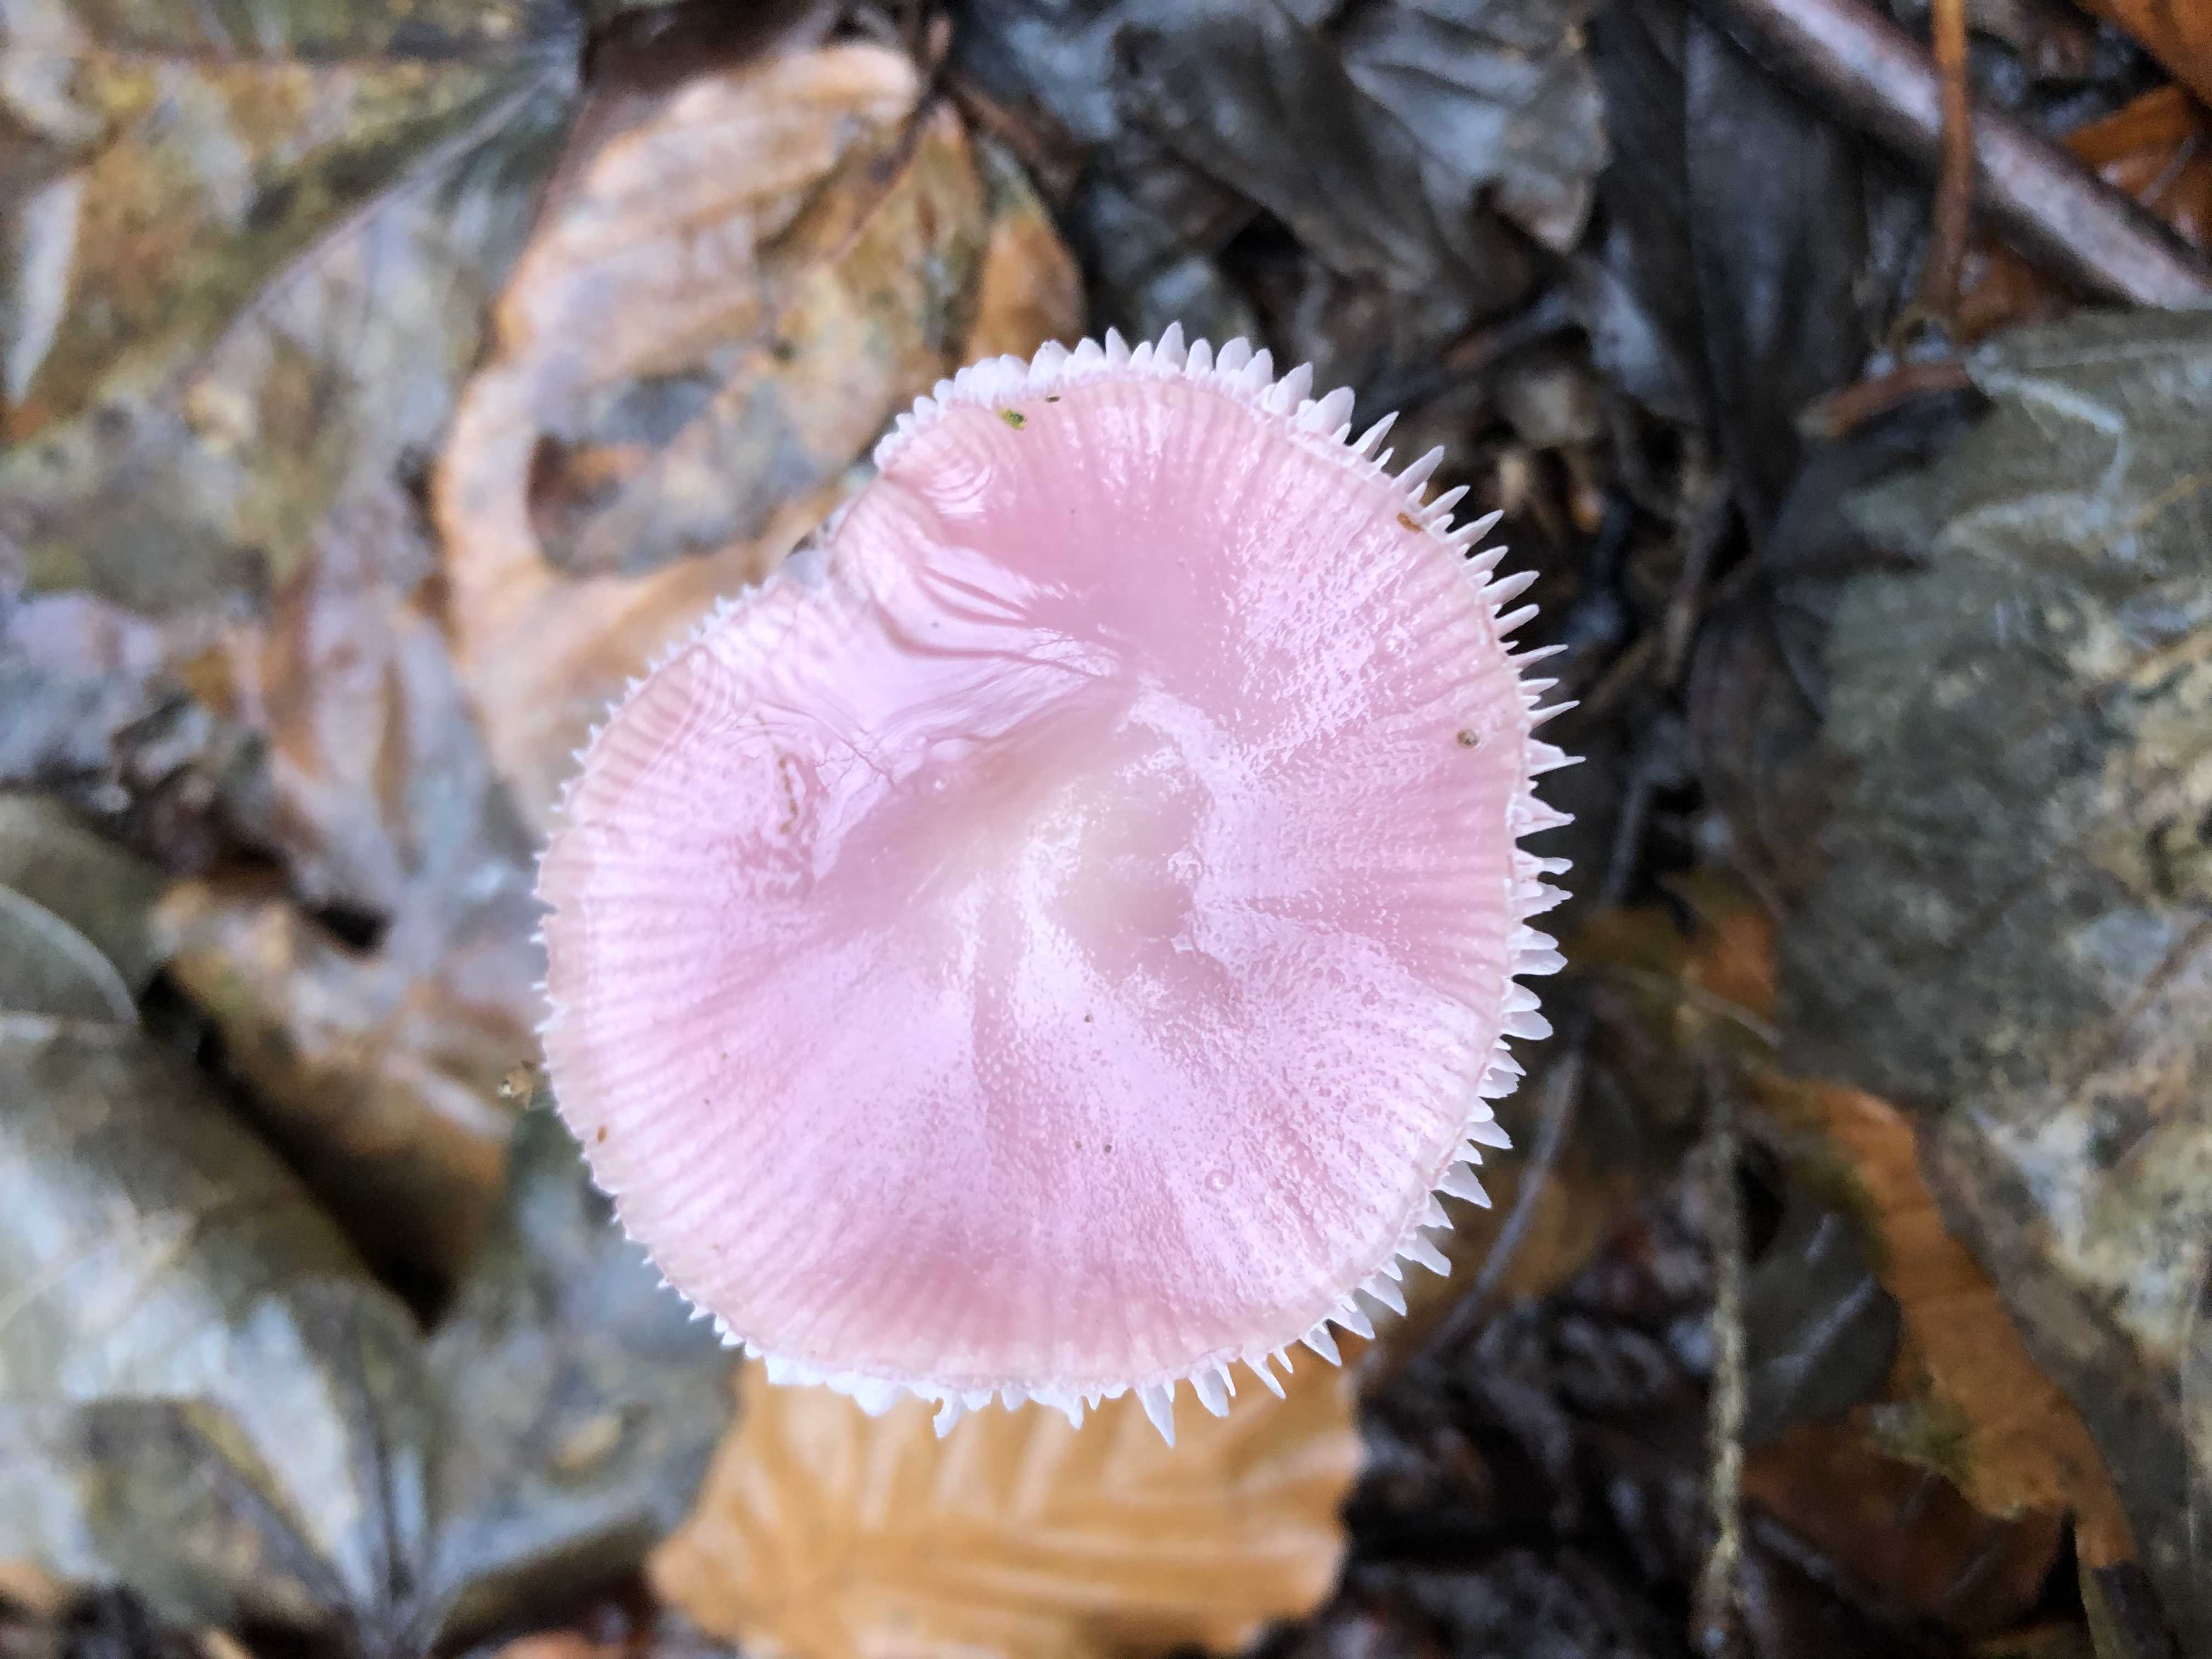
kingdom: Fungi
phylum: Basidiomycota
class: Agaricomycetes
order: Agaricales
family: Mycenaceae
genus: Mycena
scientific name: Mycena rosea
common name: rosa huesvamp
